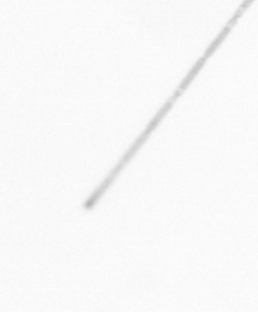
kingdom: Chromista
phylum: Ochrophyta
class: Bacillariophyceae
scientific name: Bacillariophyceae
